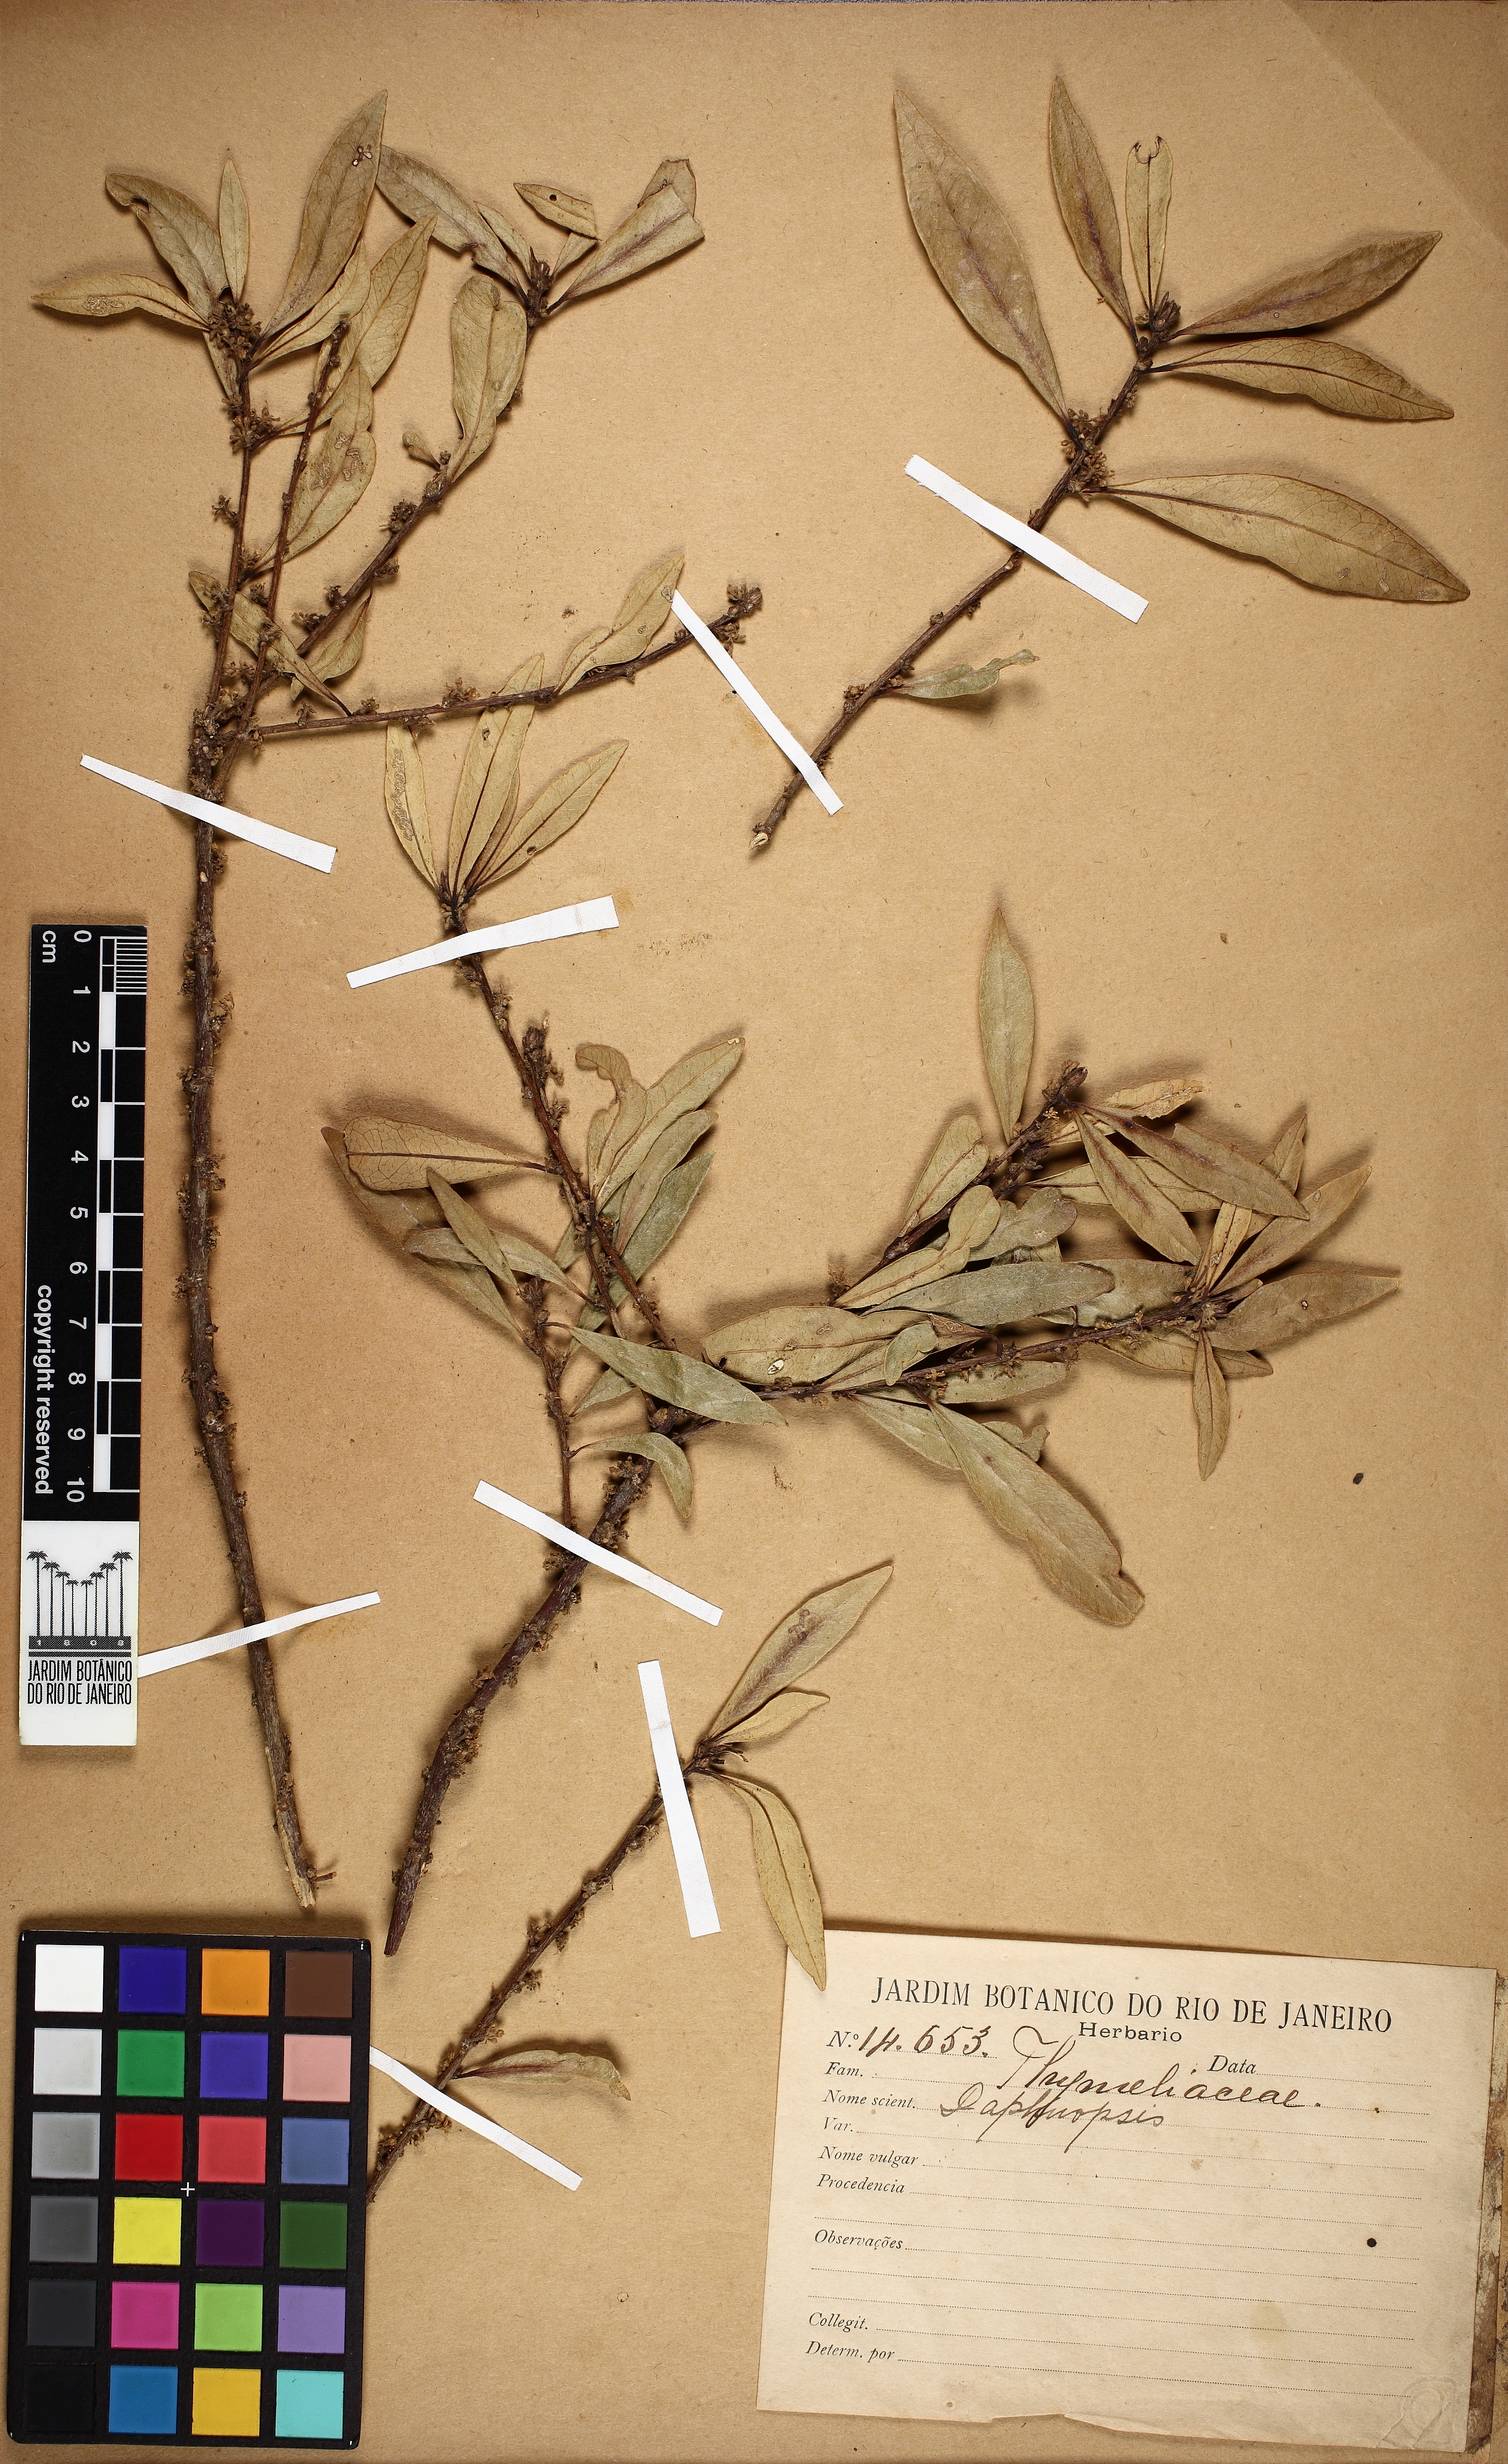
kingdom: Plantae
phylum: Tracheophyta
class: Magnoliopsida
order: Malvales
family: Thymelaeaceae
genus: Daphnopsis
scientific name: Daphnopsis
